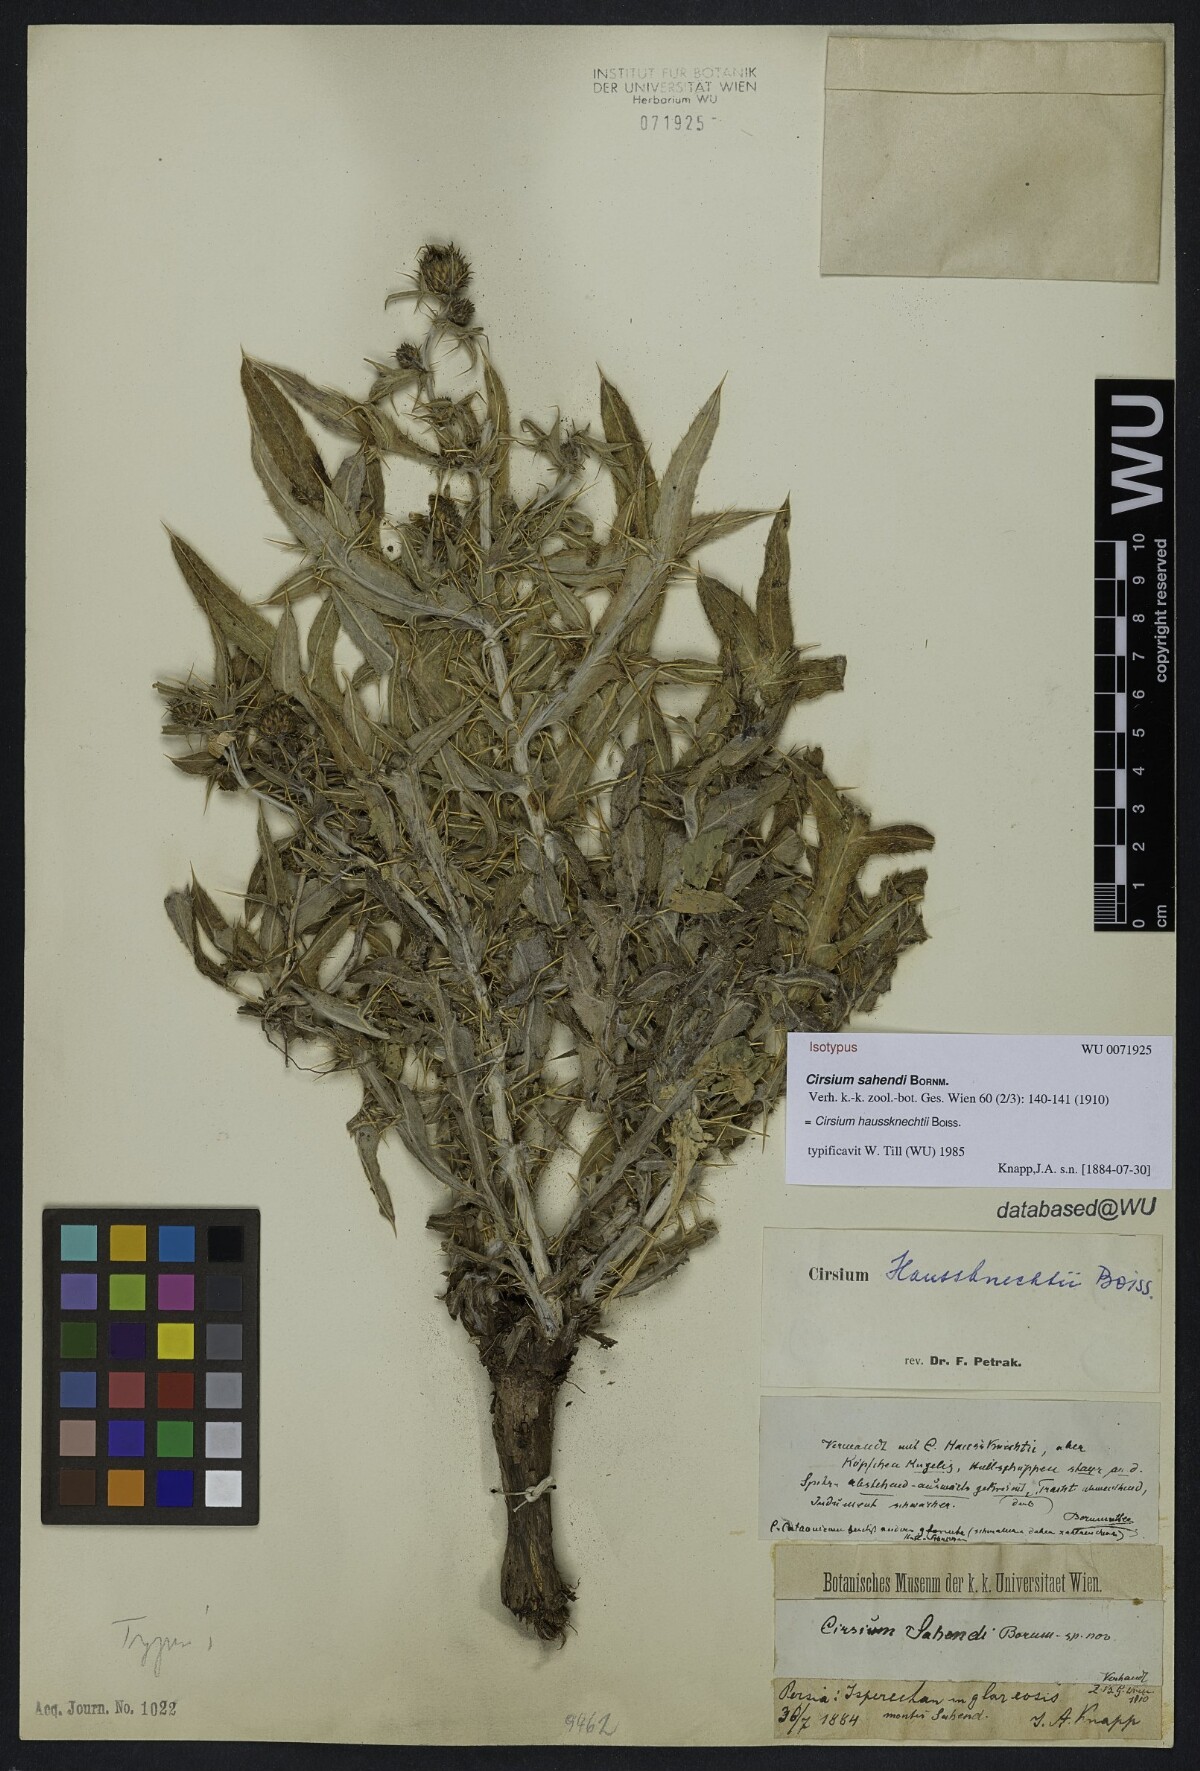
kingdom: Plantae
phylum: Tracheophyta
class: Magnoliopsida
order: Asterales
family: Asteraceae
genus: Lophiolepis
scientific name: Lophiolepis haussknechtii
